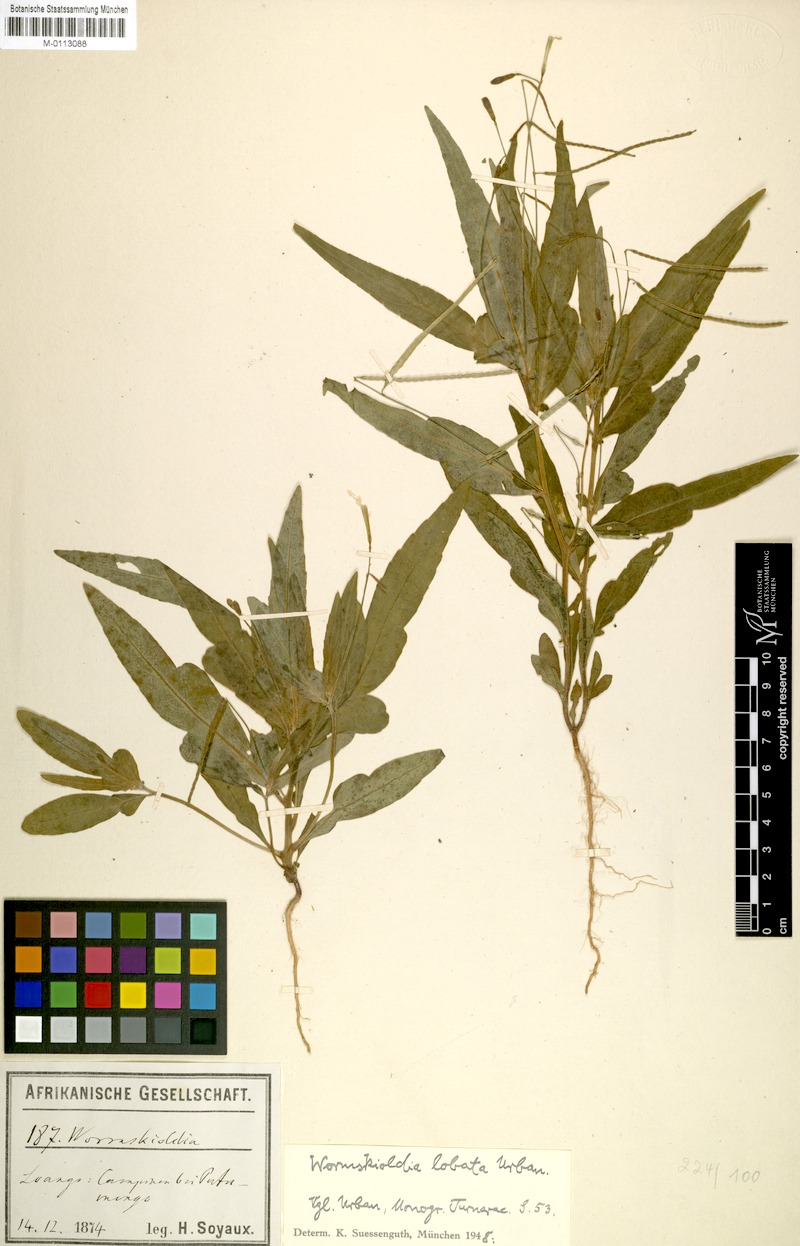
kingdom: Plantae
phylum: Tracheophyta
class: Magnoliopsida
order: Malpighiales
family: Turneraceae
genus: Tricliceras
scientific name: Tricliceras lobatum
